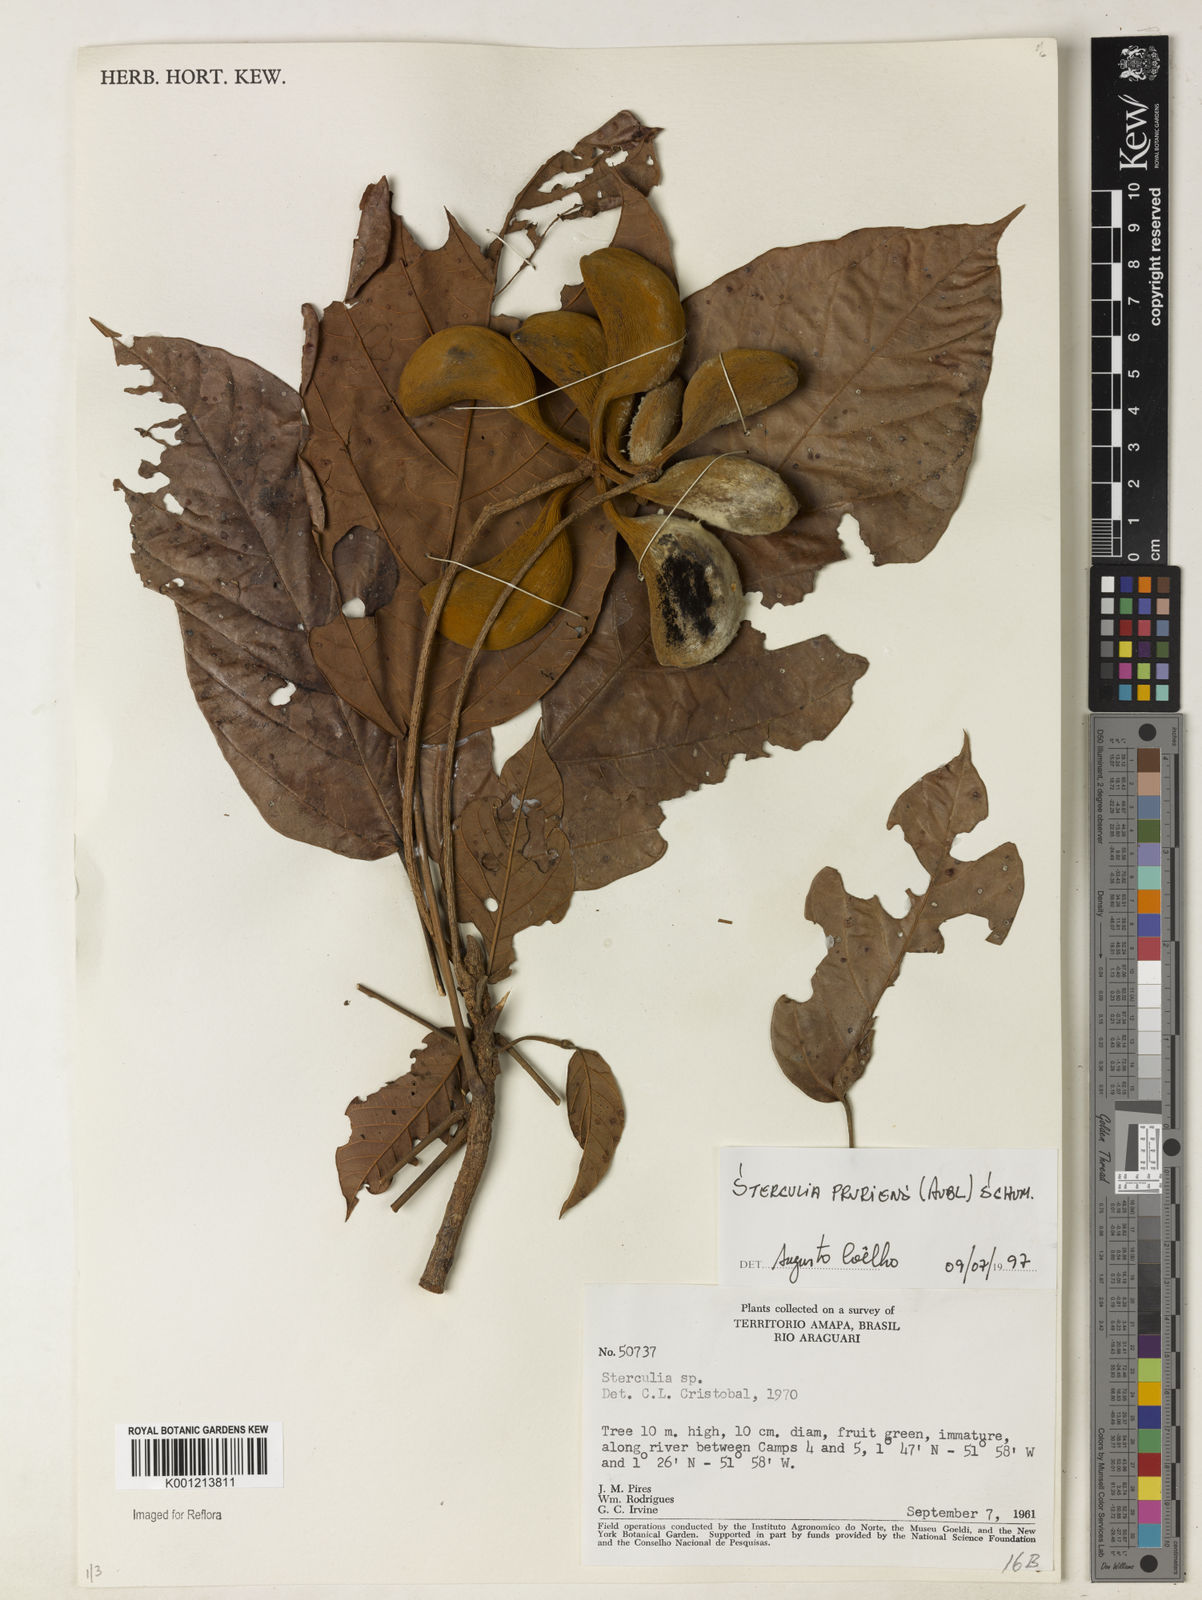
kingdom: Plantae
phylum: Tracheophyta
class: Magnoliopsida
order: Malvales
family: Malvaceae
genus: Sterculia
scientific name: Sterculia pruriens
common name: Grand mahot
